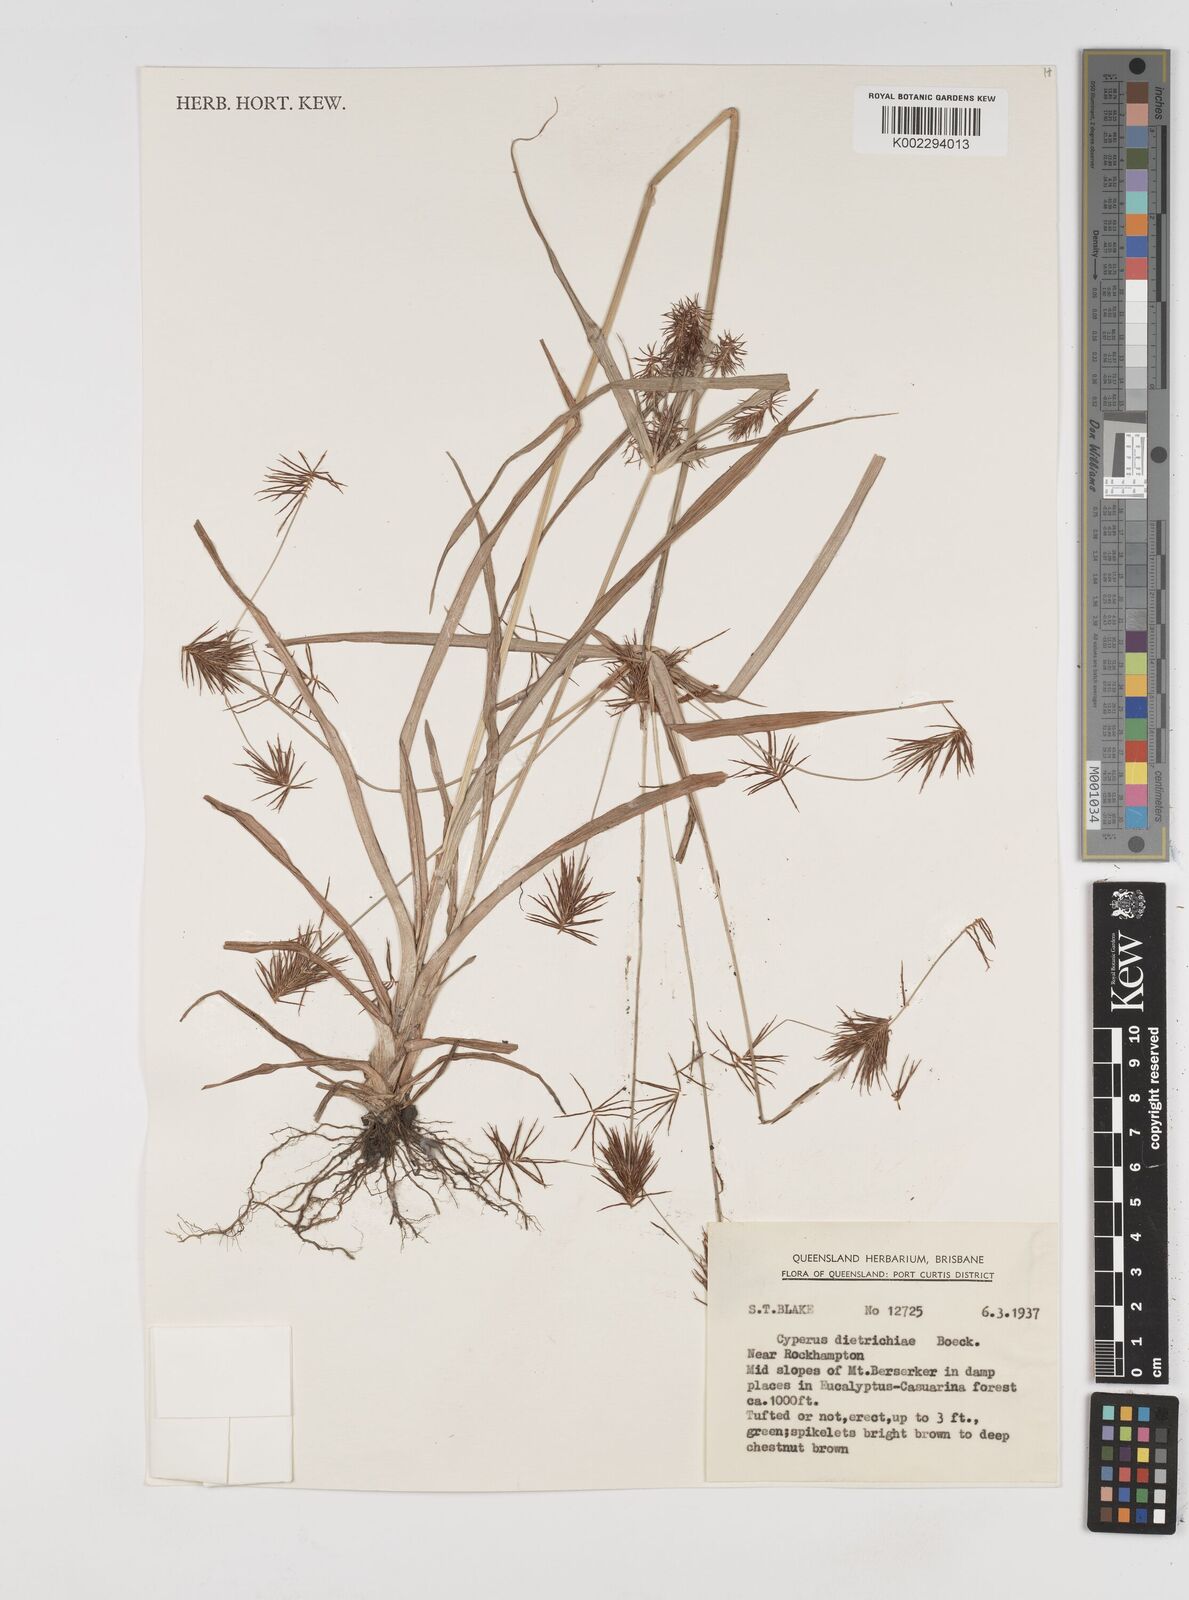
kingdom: Plantae
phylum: Tracheophyta
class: Liliopsida
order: Poales
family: Cyperaceae
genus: Cyperus
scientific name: Cyperus dietrichiae
